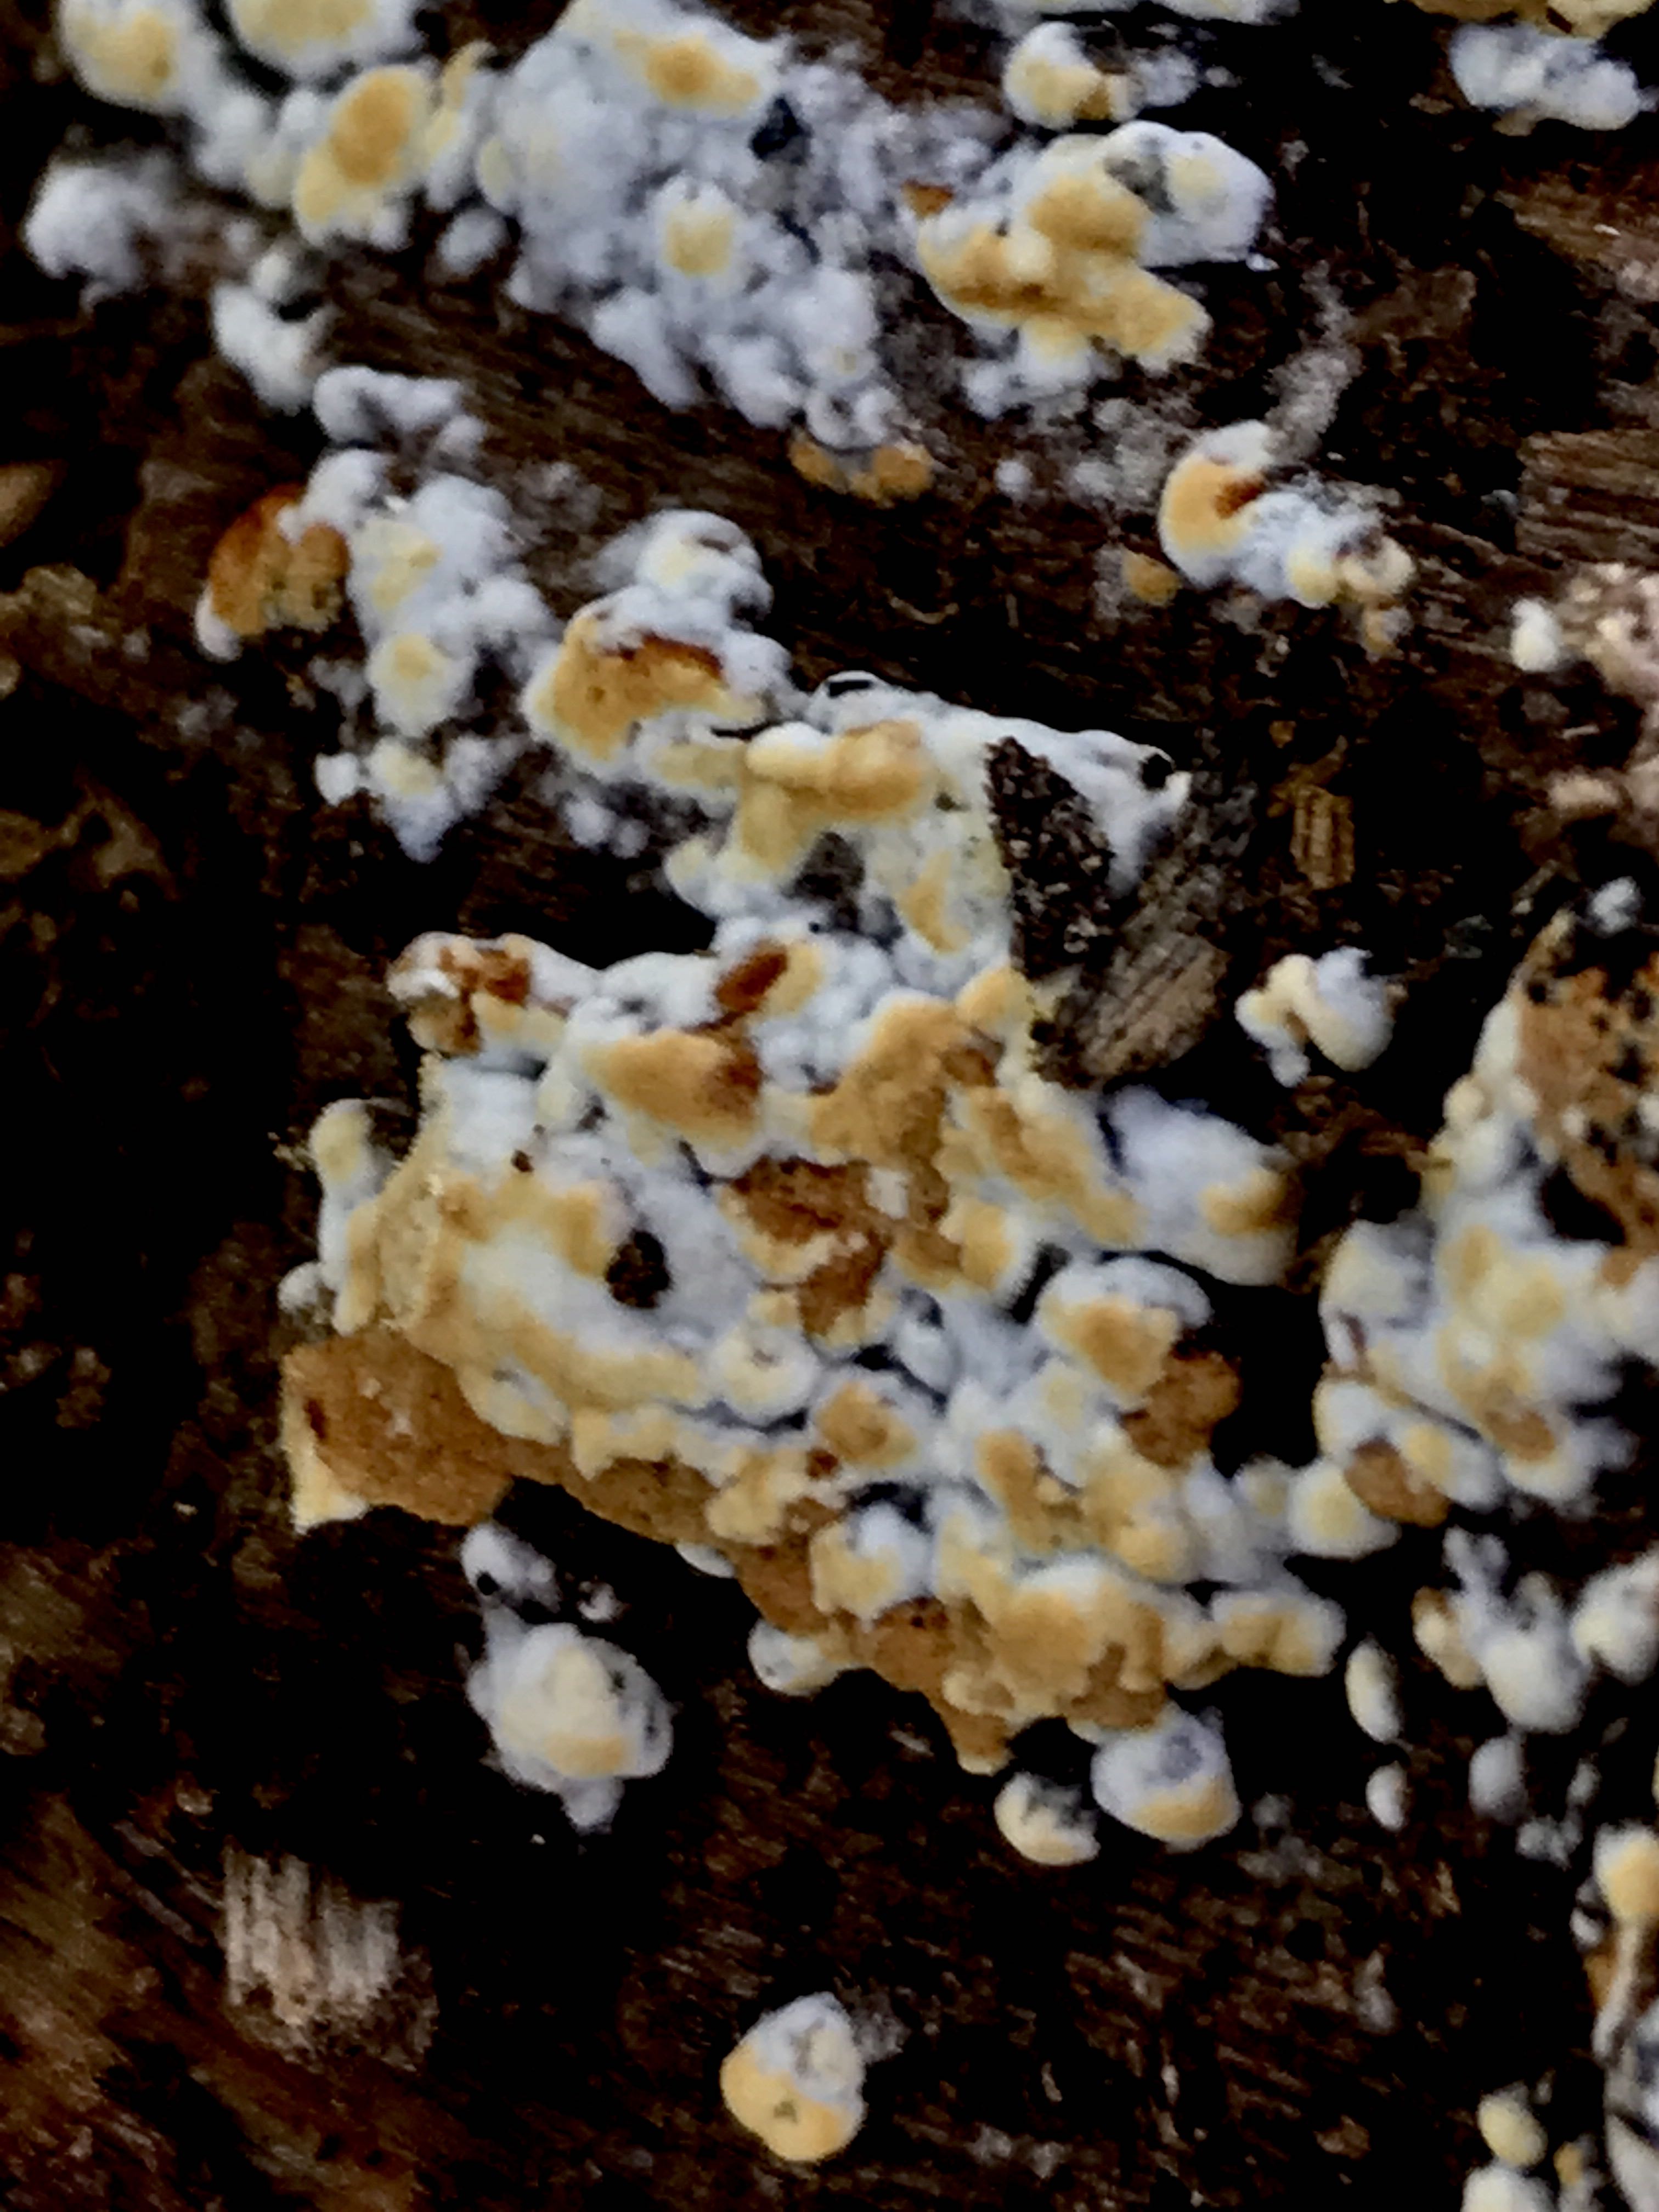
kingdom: Fungi
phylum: Basidiomycota
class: Agaricomycetes
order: Cantharellales
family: Botryobasidiaceae
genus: Botryobasidium
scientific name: Botryobasidium aureum
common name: gylden spindhinde
